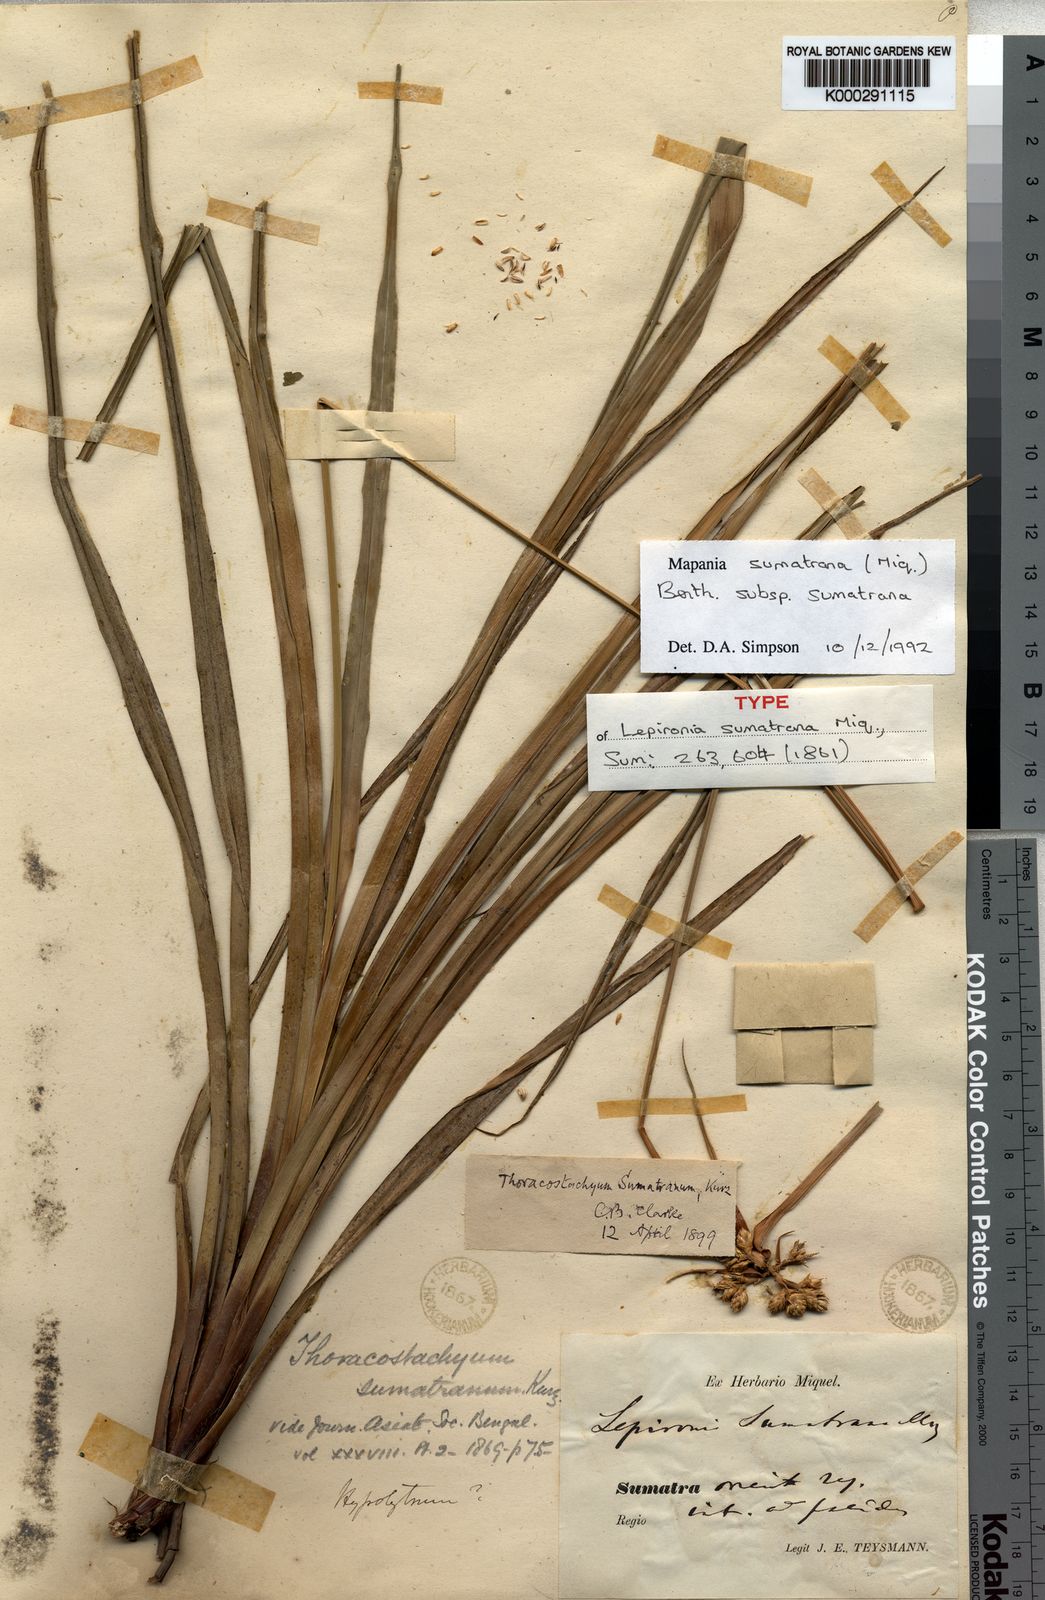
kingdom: Plantae
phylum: Tracheophyta
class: Liliopsida
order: Poales
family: Cyperaceae
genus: Mapania
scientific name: Mapania sumatrana
